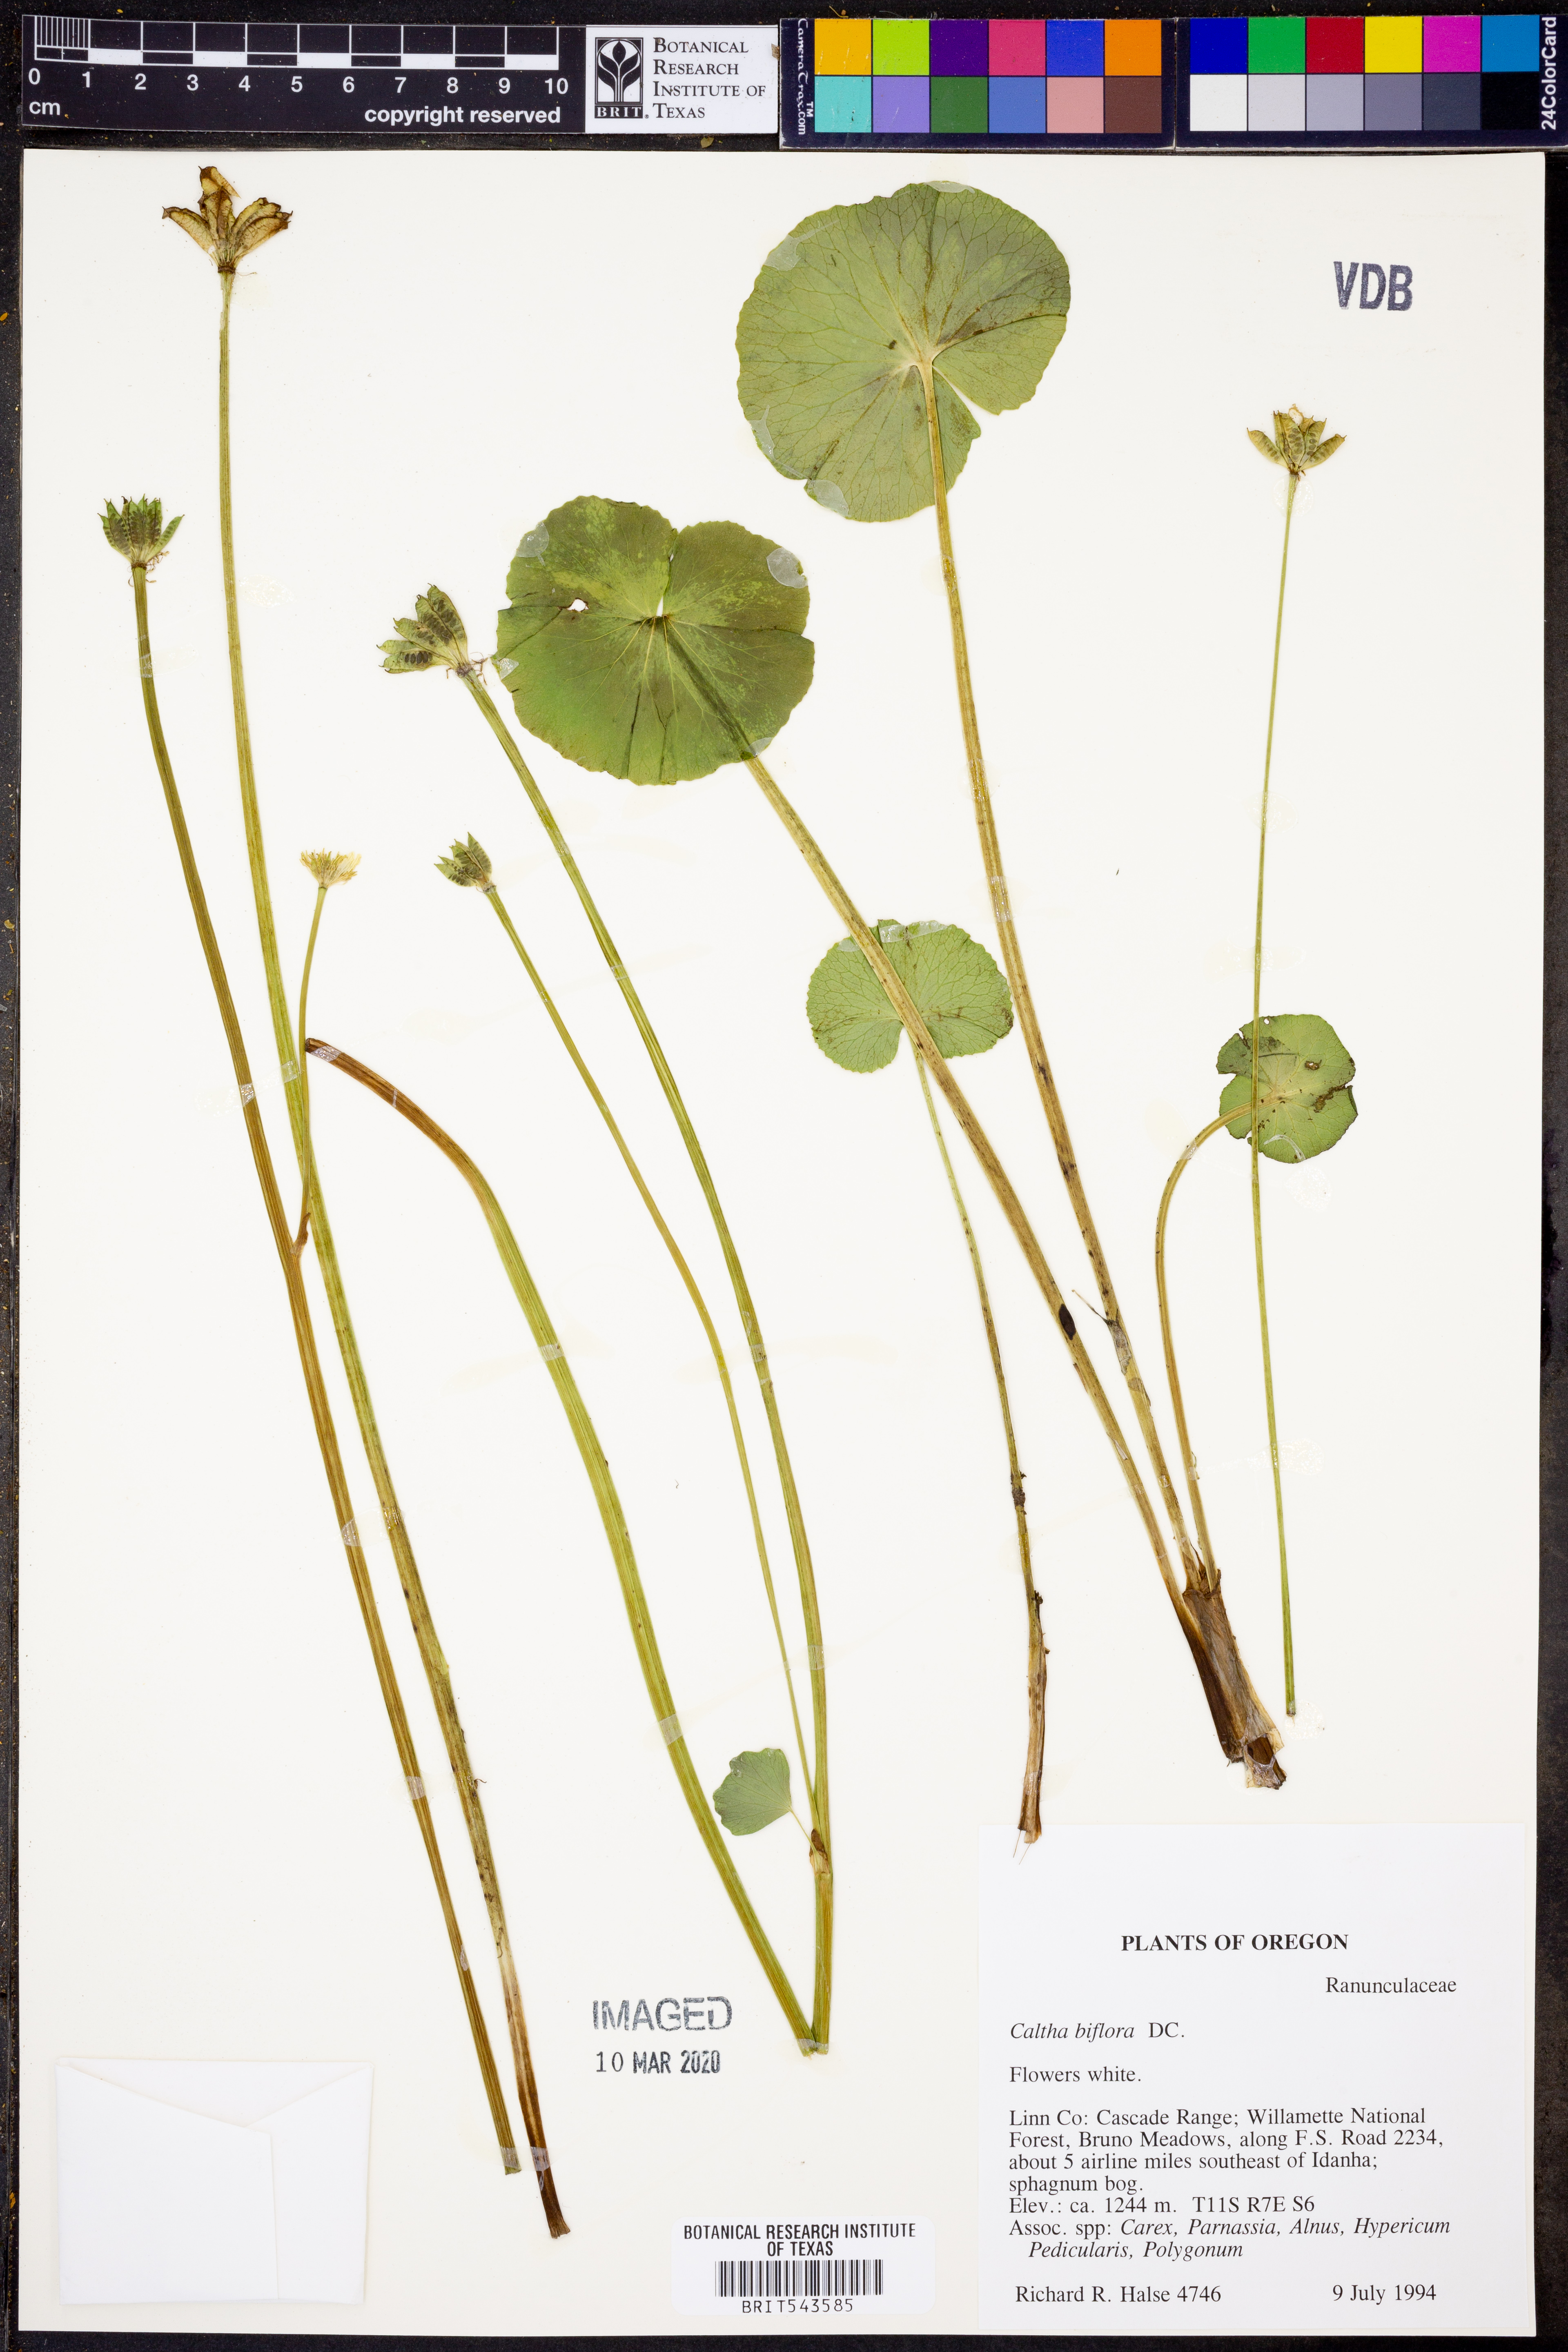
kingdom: Plantae
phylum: Tracheophyta
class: Magnoliopsida
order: Ranunculales
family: Ranunculaceae
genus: Caltha
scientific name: Caltha biflora
